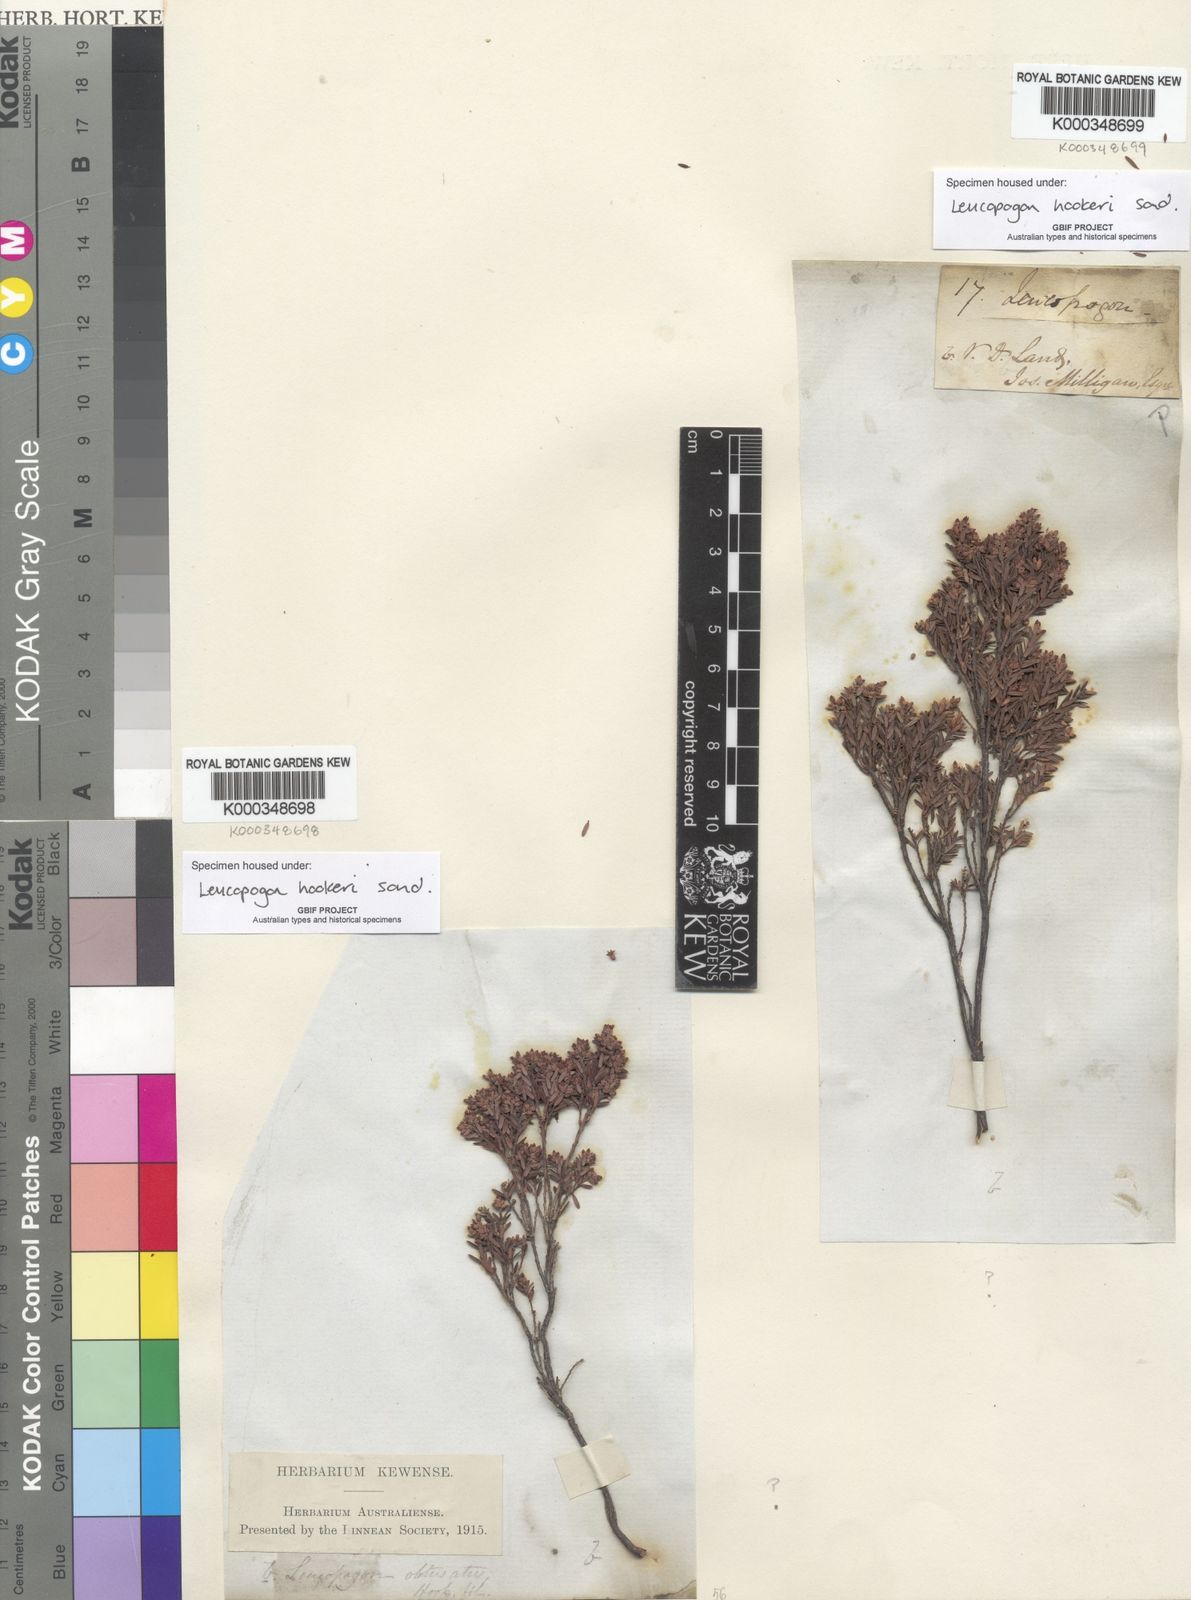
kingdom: Plantae
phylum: Tracheophyta
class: Magnoliopsida
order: Ericales
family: Ericaceae
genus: Acrothamnus
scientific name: Acrothamnus hookeri
